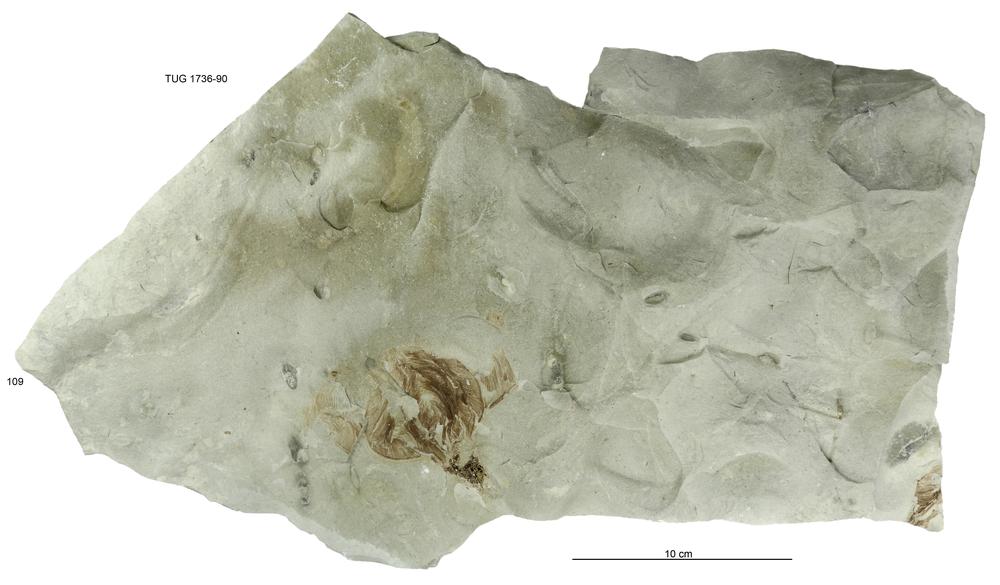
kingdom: Animalia
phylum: Echinodermata
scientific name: Echinodermata
